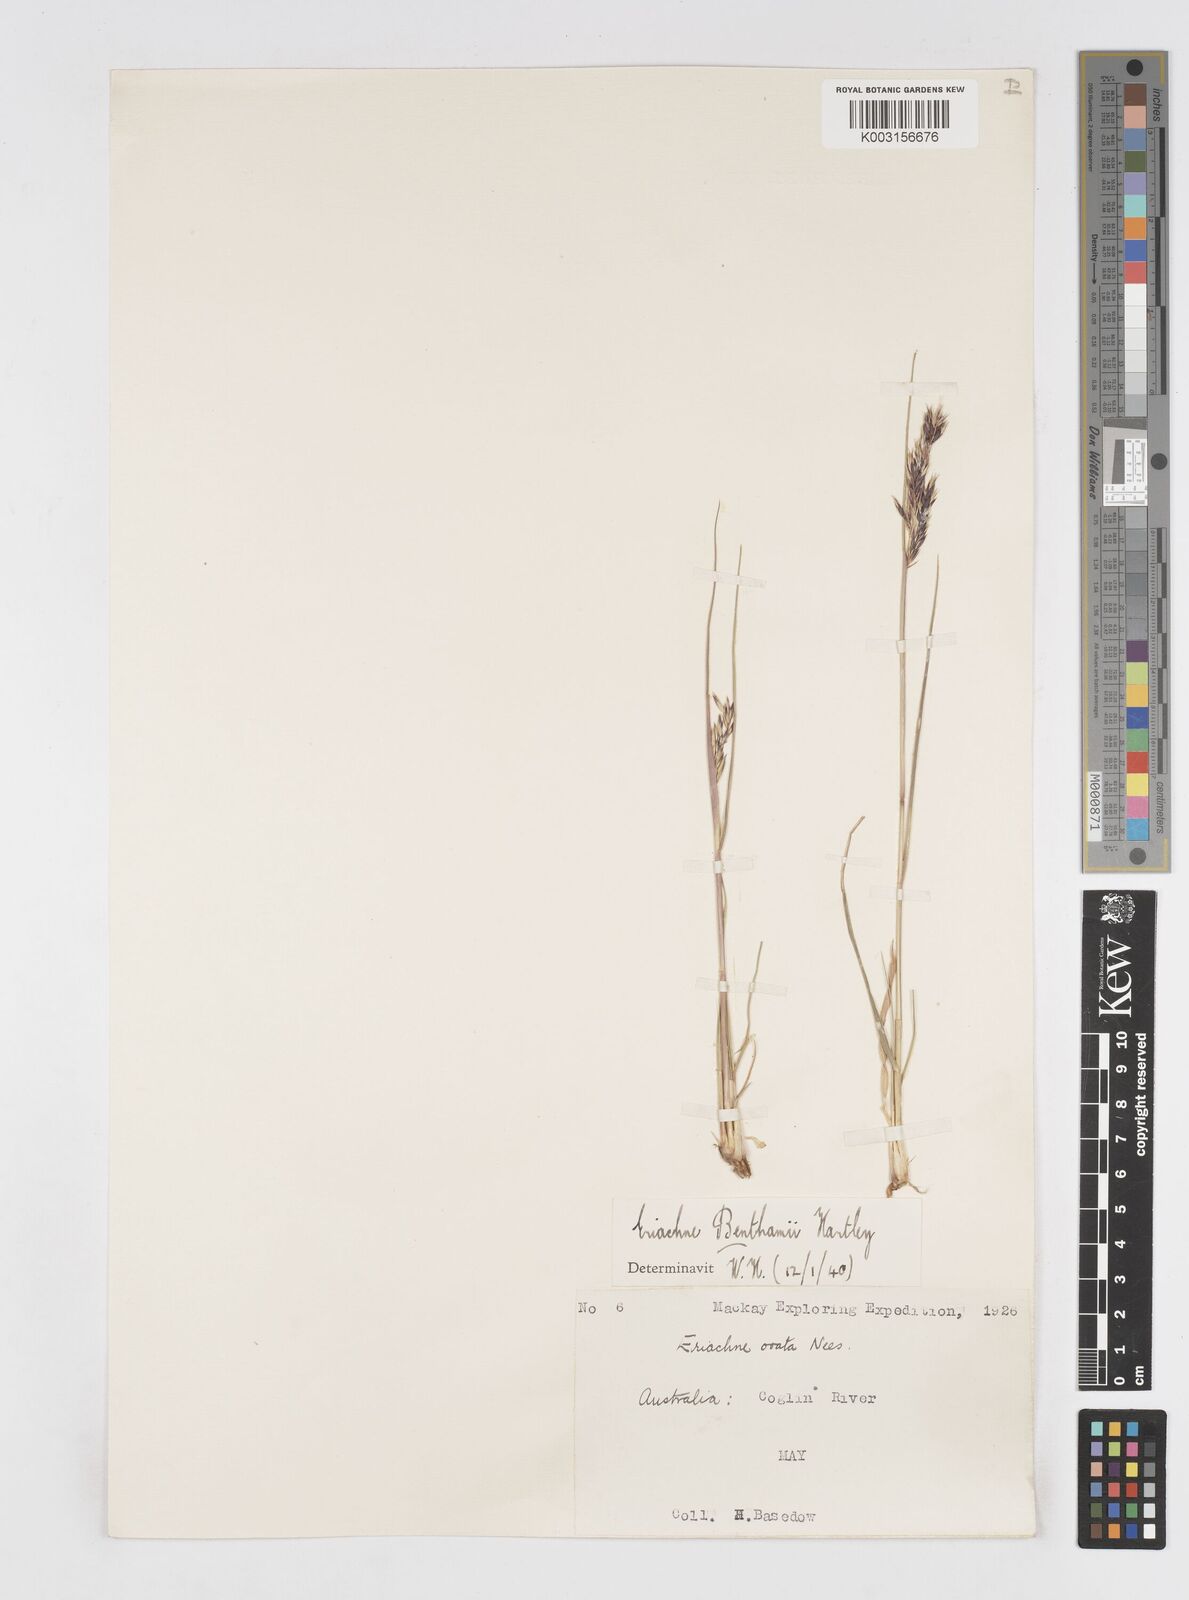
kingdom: Plantae
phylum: Tracheophyta
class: Liliopsida
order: Poales
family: Poaceae
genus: Eriachne
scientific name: Eriachne benthamii
